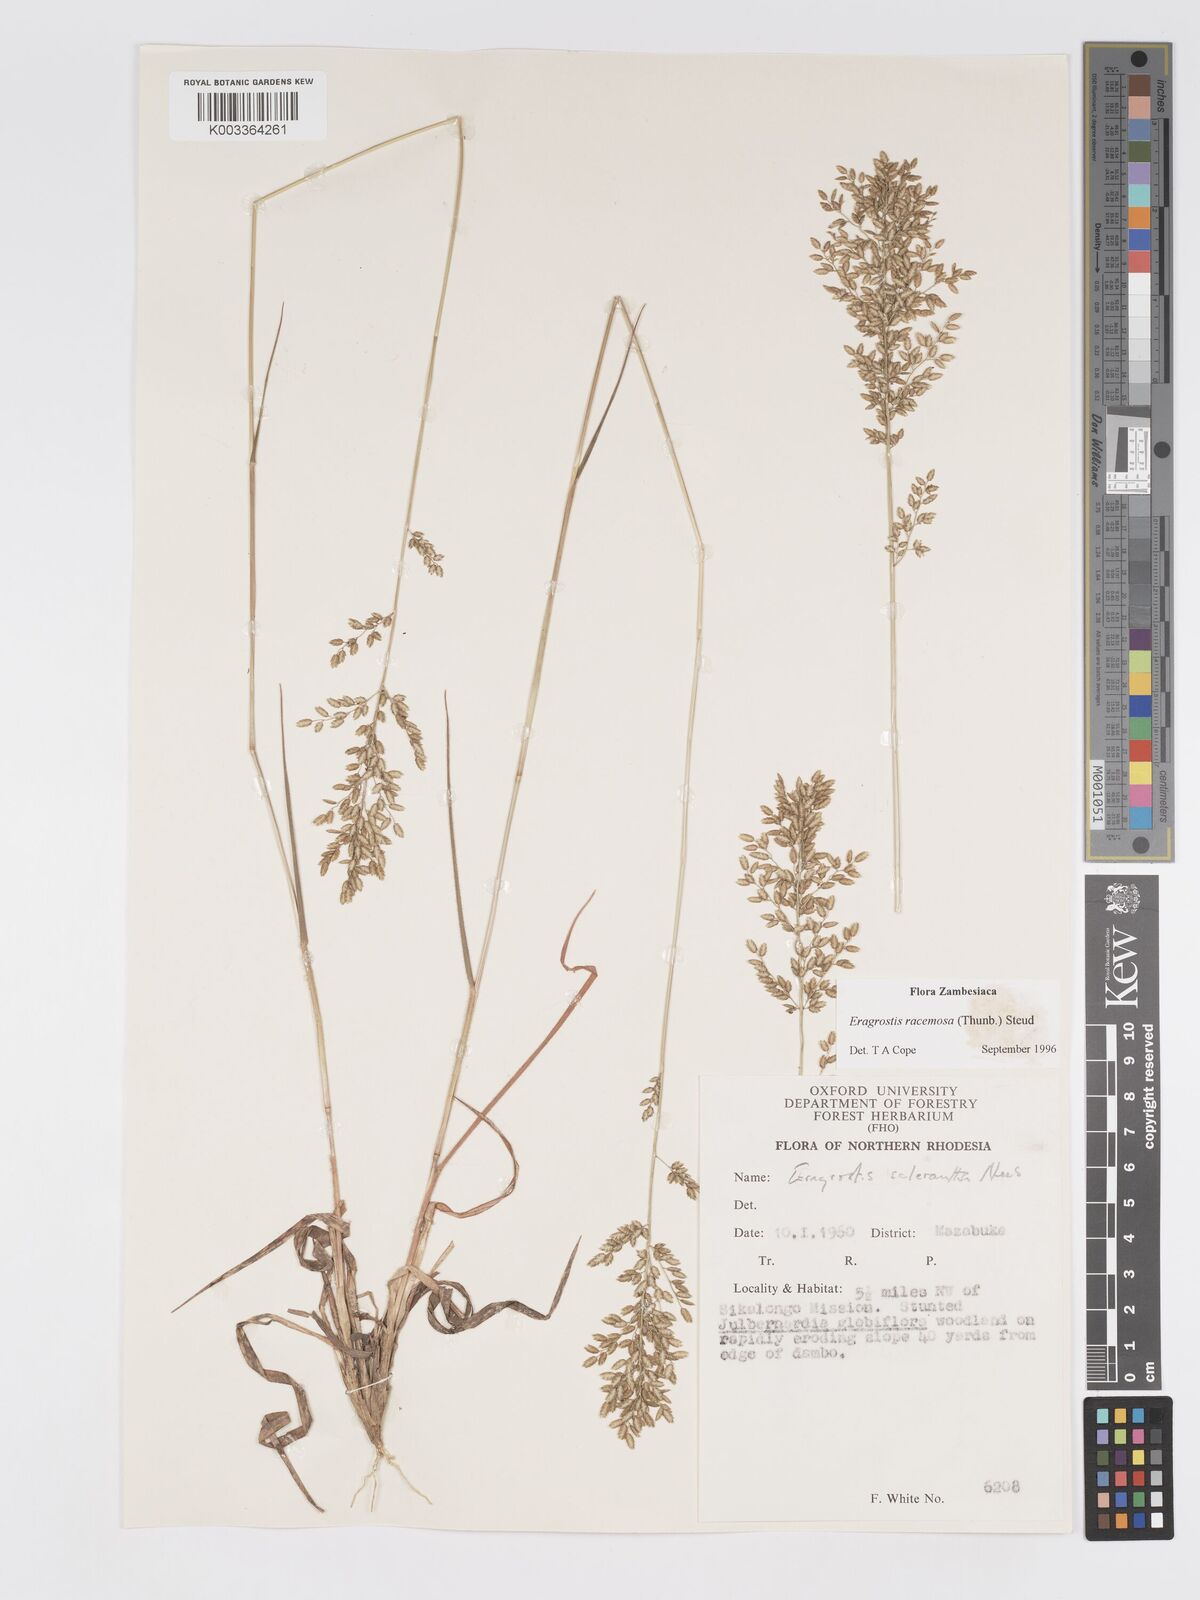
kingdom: Plantae
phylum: Tracheophyta
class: Liliopsida
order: Poales
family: Poaceae
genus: Eragrostis
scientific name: Eragrostis racemosa
